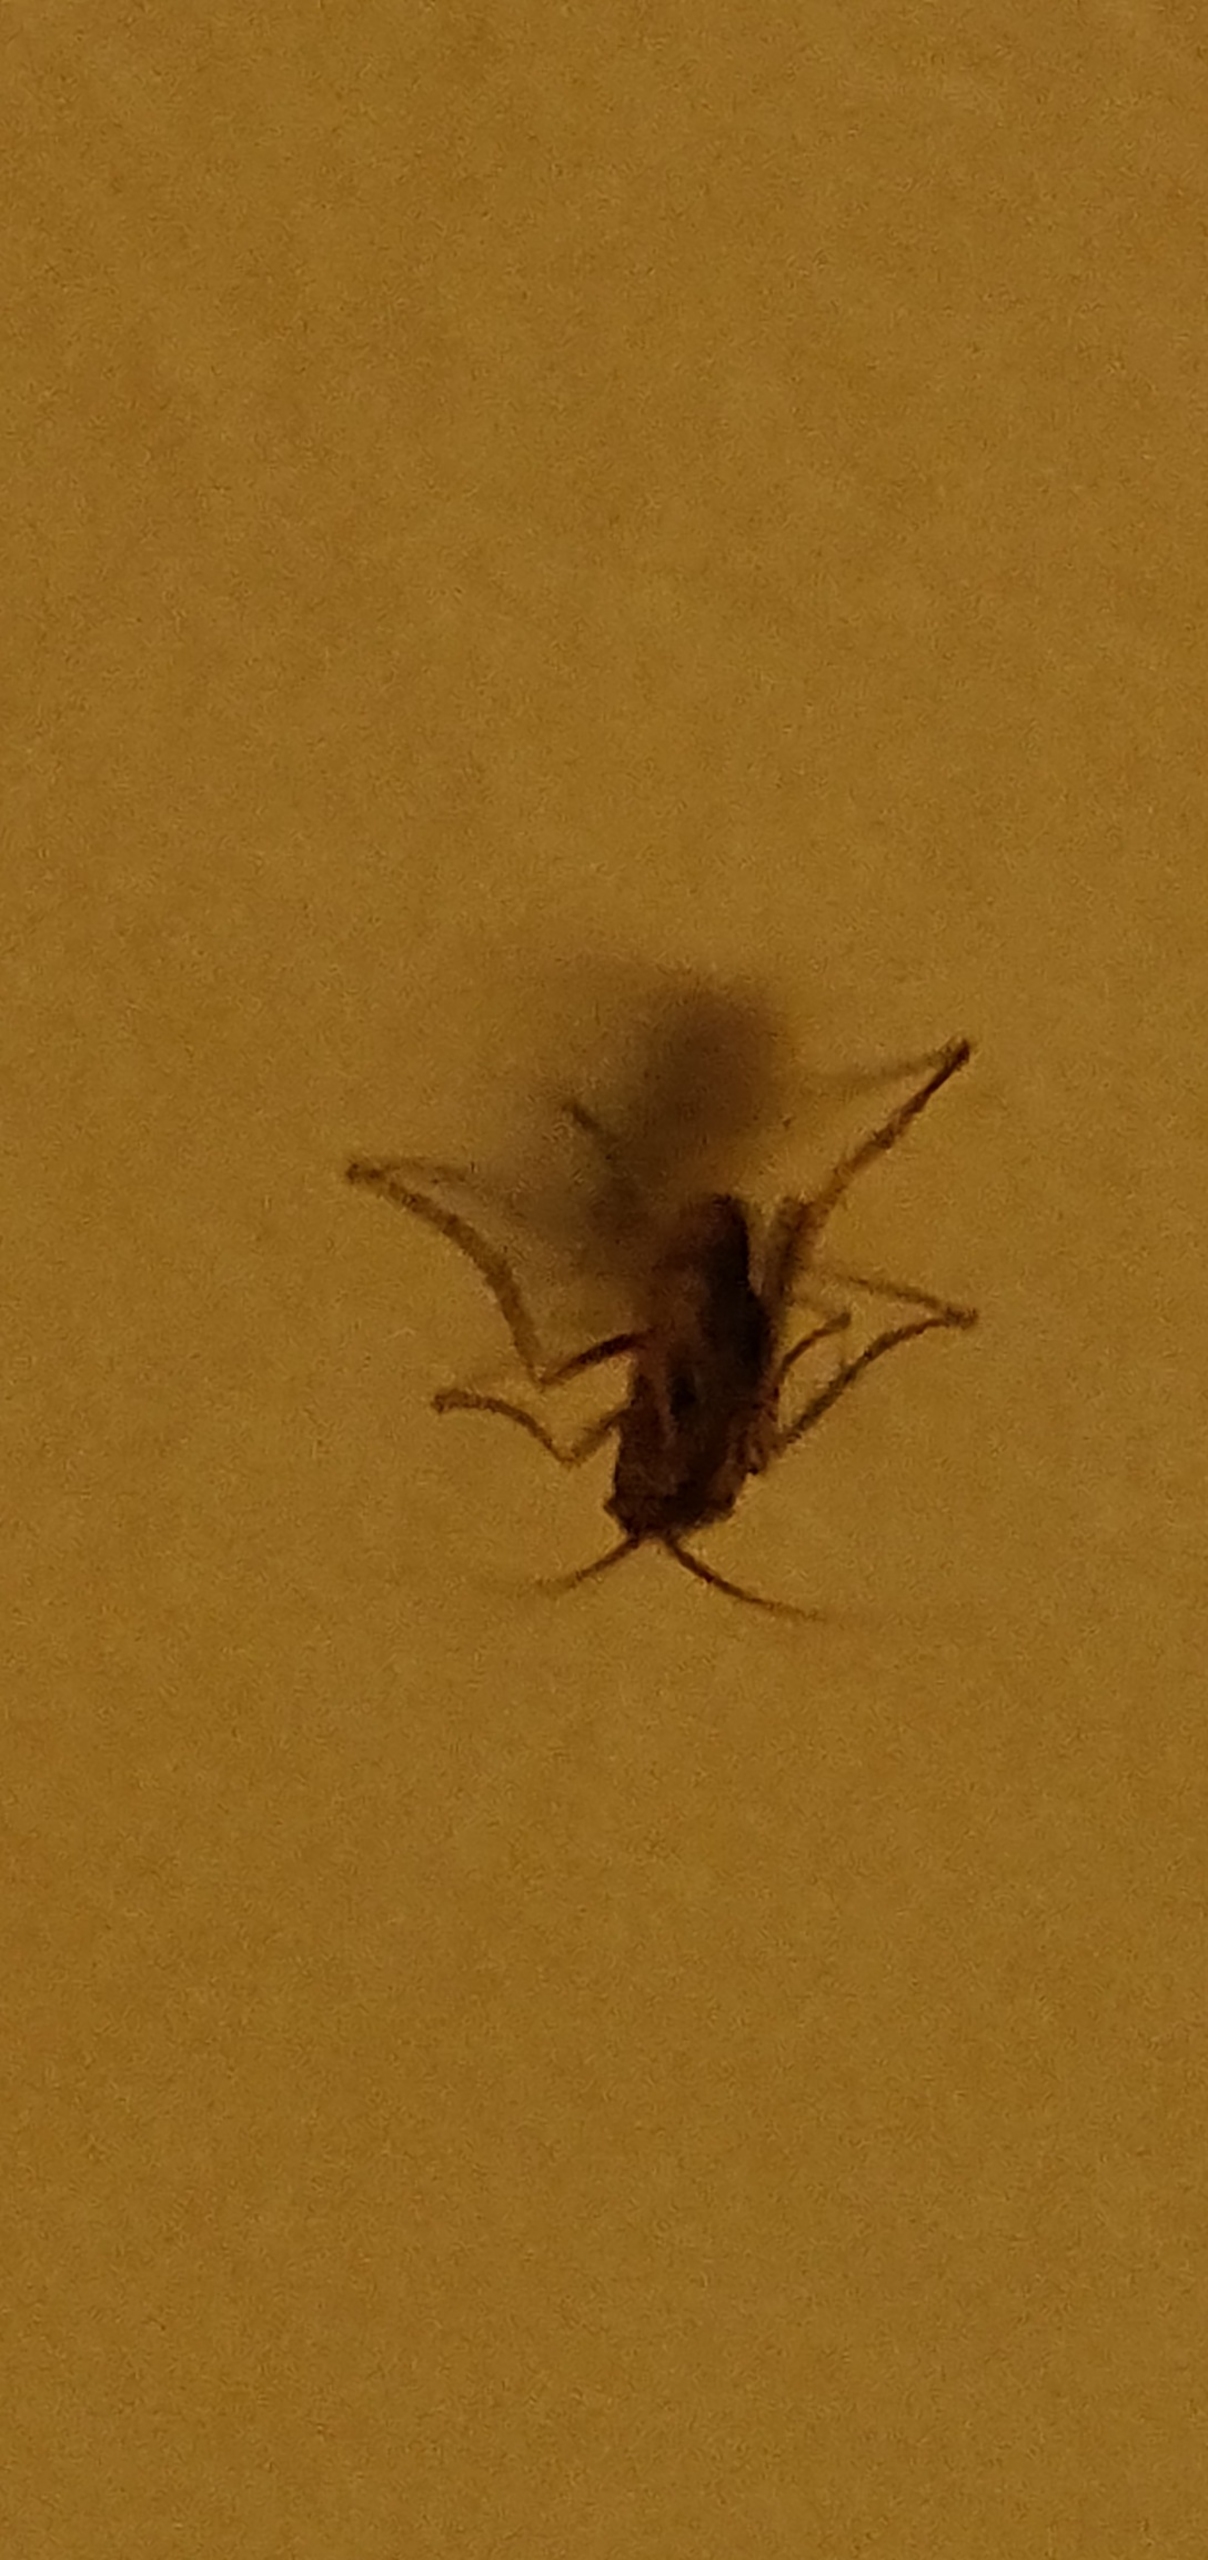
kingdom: Animalia
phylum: Arthropoda
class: Insecta
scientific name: Insecta
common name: Insekter
